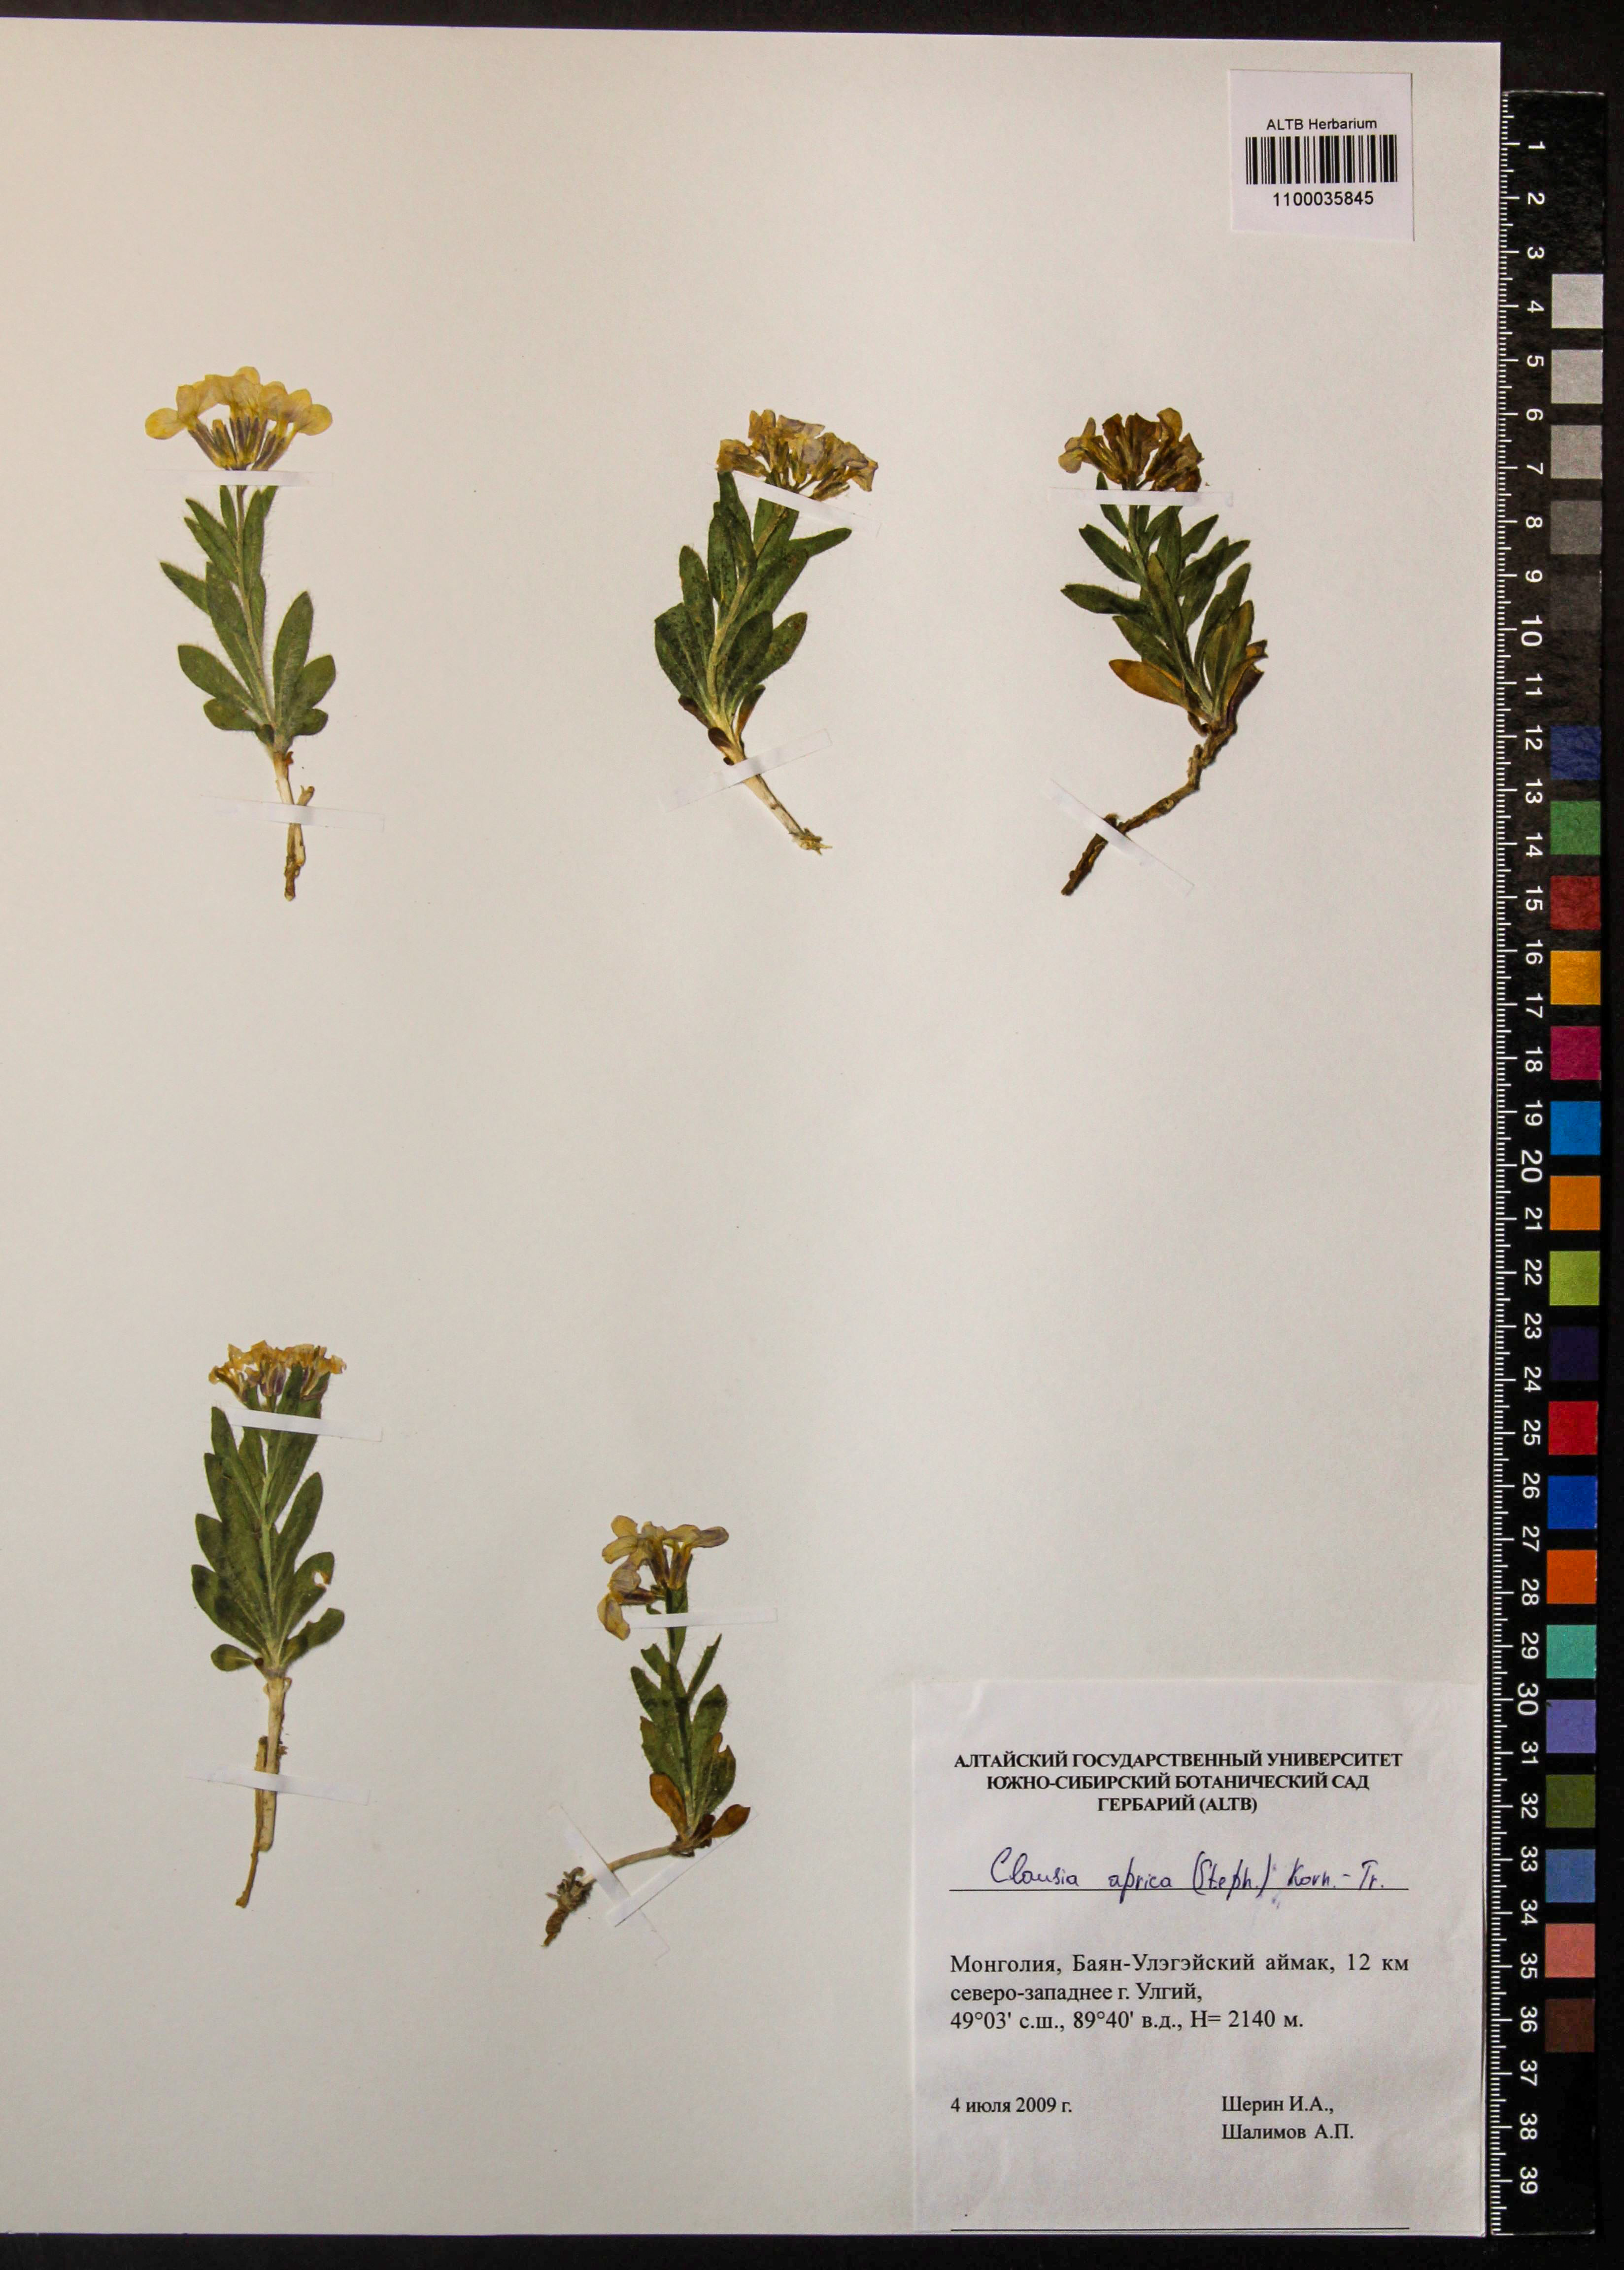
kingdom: Plantae
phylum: Tracheophyta
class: Magnoliopsida
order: Brassicales
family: Brassicaceae
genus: Clausia
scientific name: Clausia aprica
